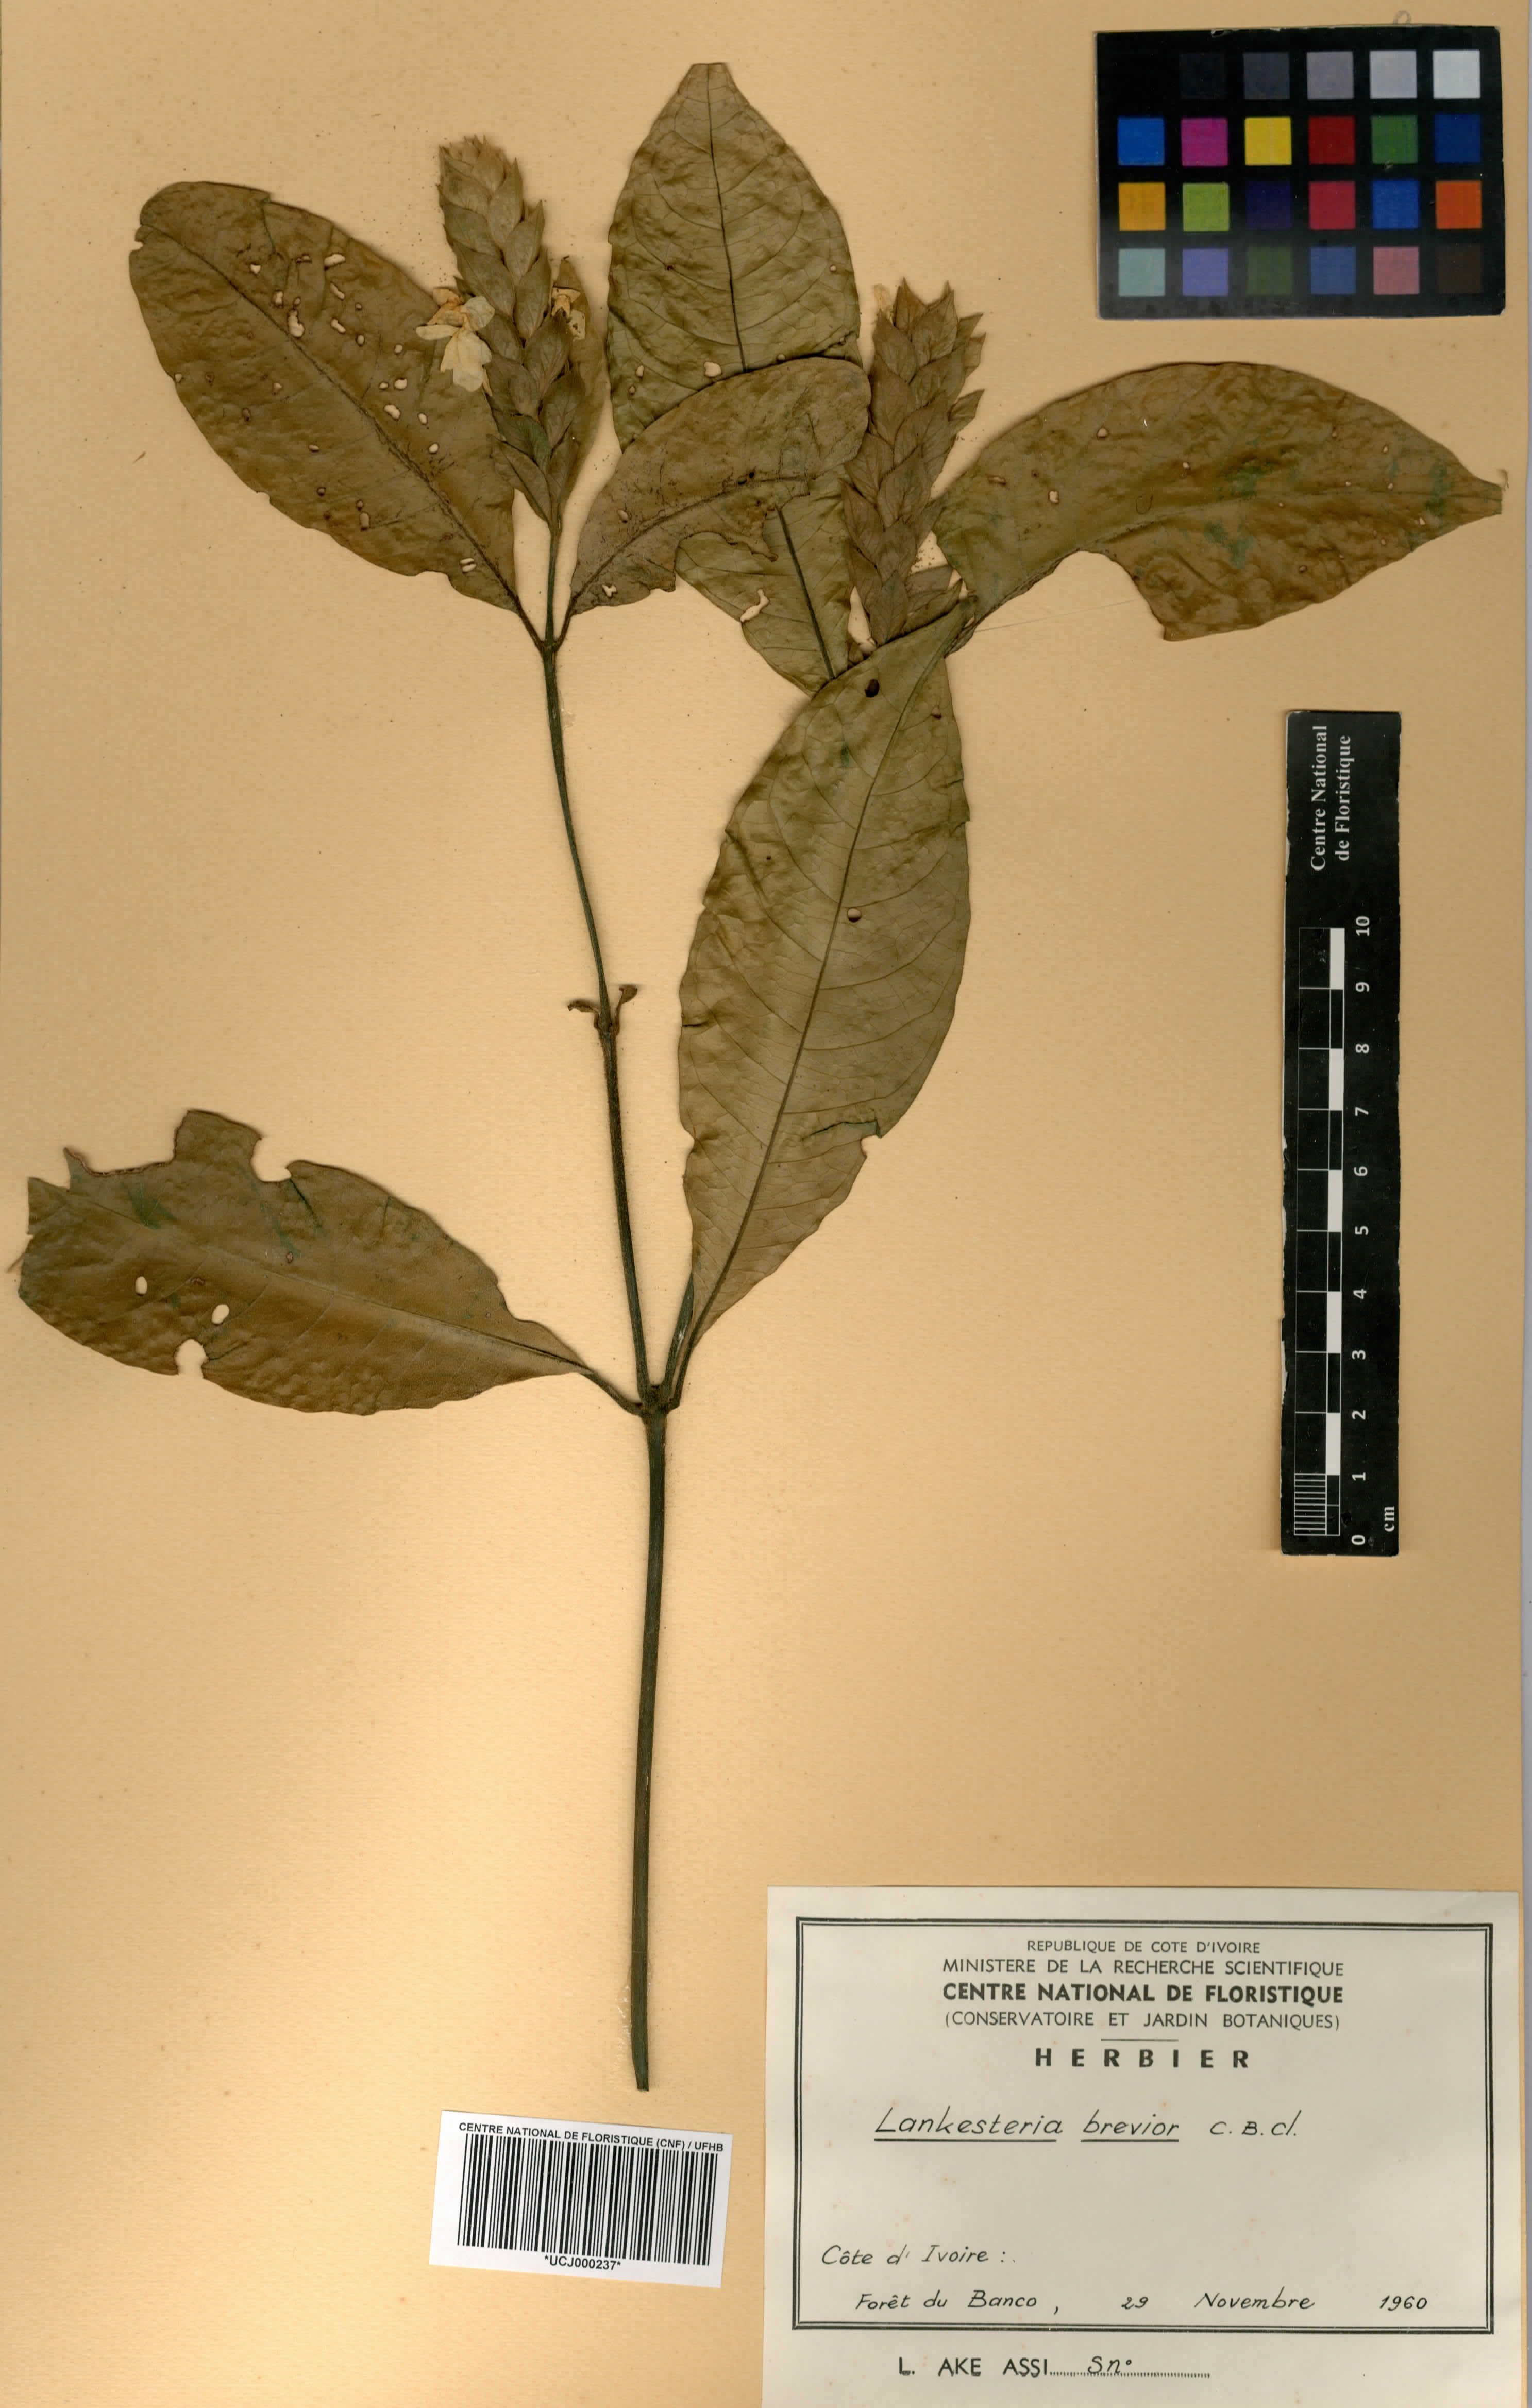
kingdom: Plantae
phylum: Tracheophyta
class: Magnoliopsida
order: Lamiales
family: Acanthaceae
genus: Lankesteria
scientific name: Lankesteria brevior
